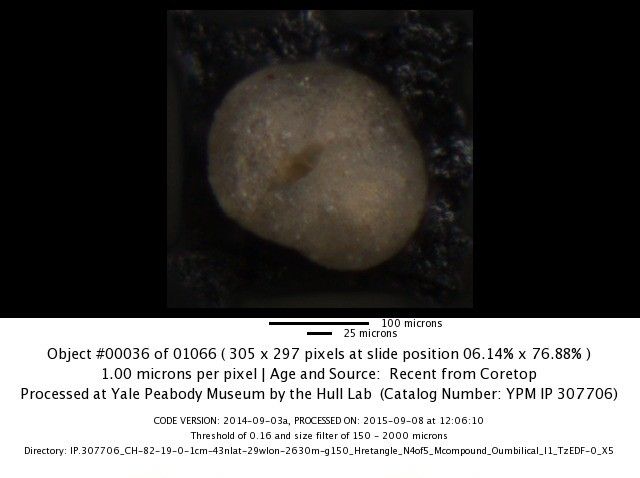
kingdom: Chromista
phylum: Foraminifera
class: Globothalamea
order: Rotaliida
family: Globorotaliidae
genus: Neogloboquadrina
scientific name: Neogloboquadrina pachyderma
